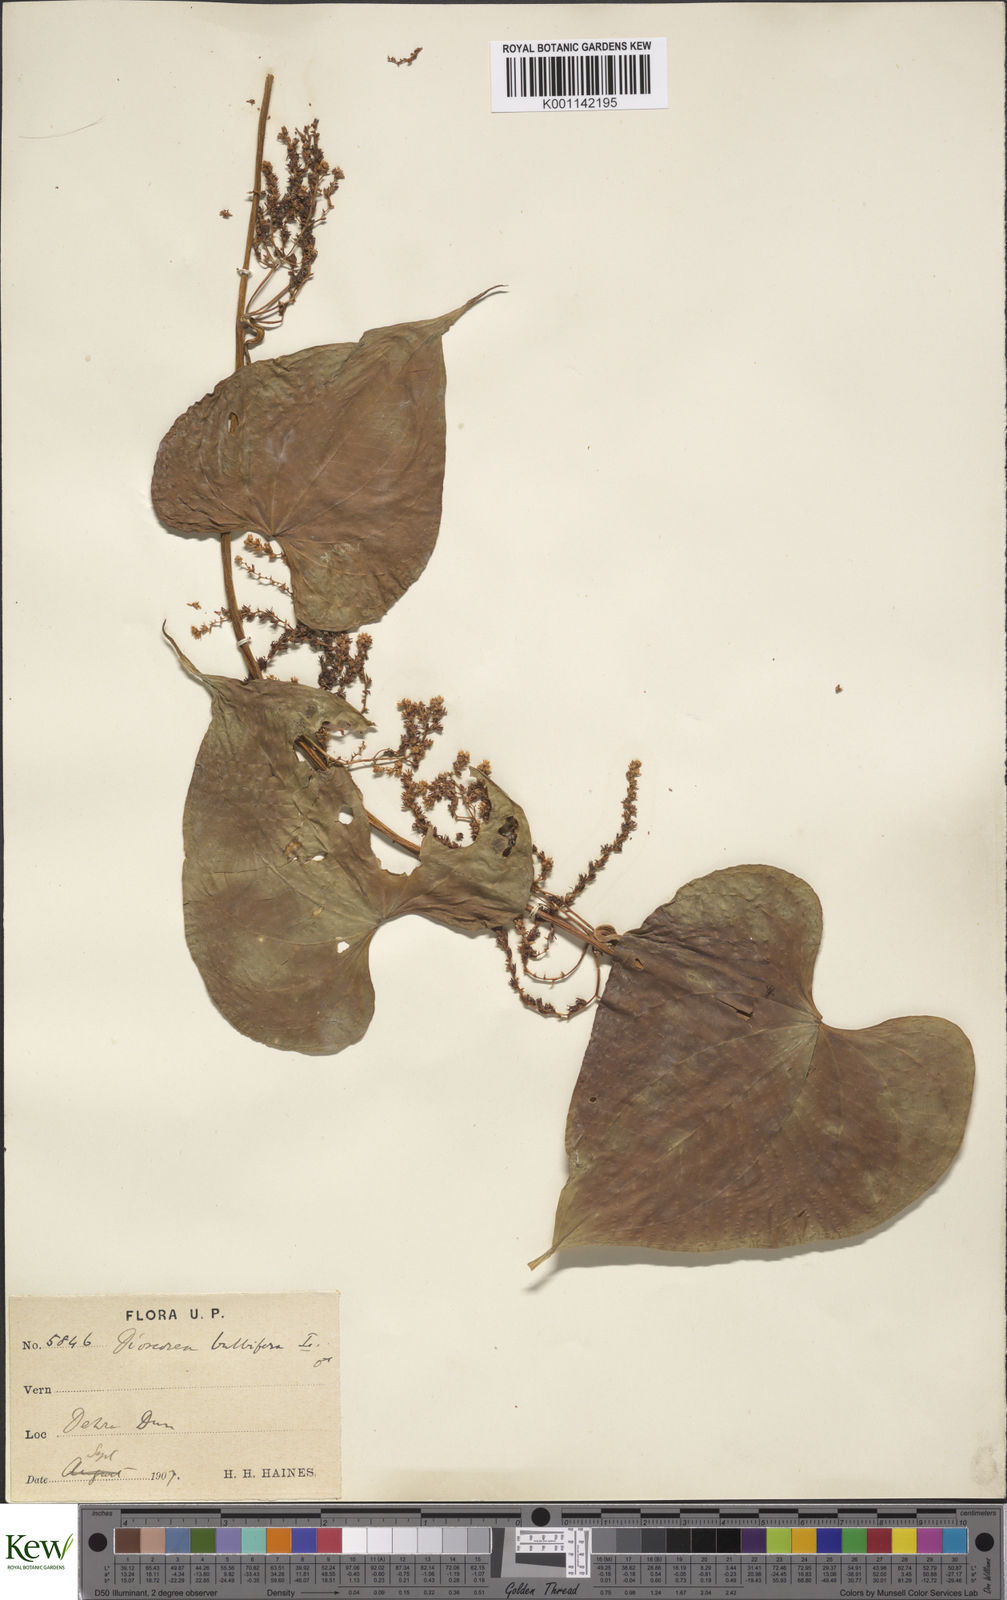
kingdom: Plantae
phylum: Tracheophyta
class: Liliopsida
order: Dioscoreales
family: Dioscoreaceae
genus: Dioscorea
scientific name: Dioscorea bulbifera
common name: Air yam
